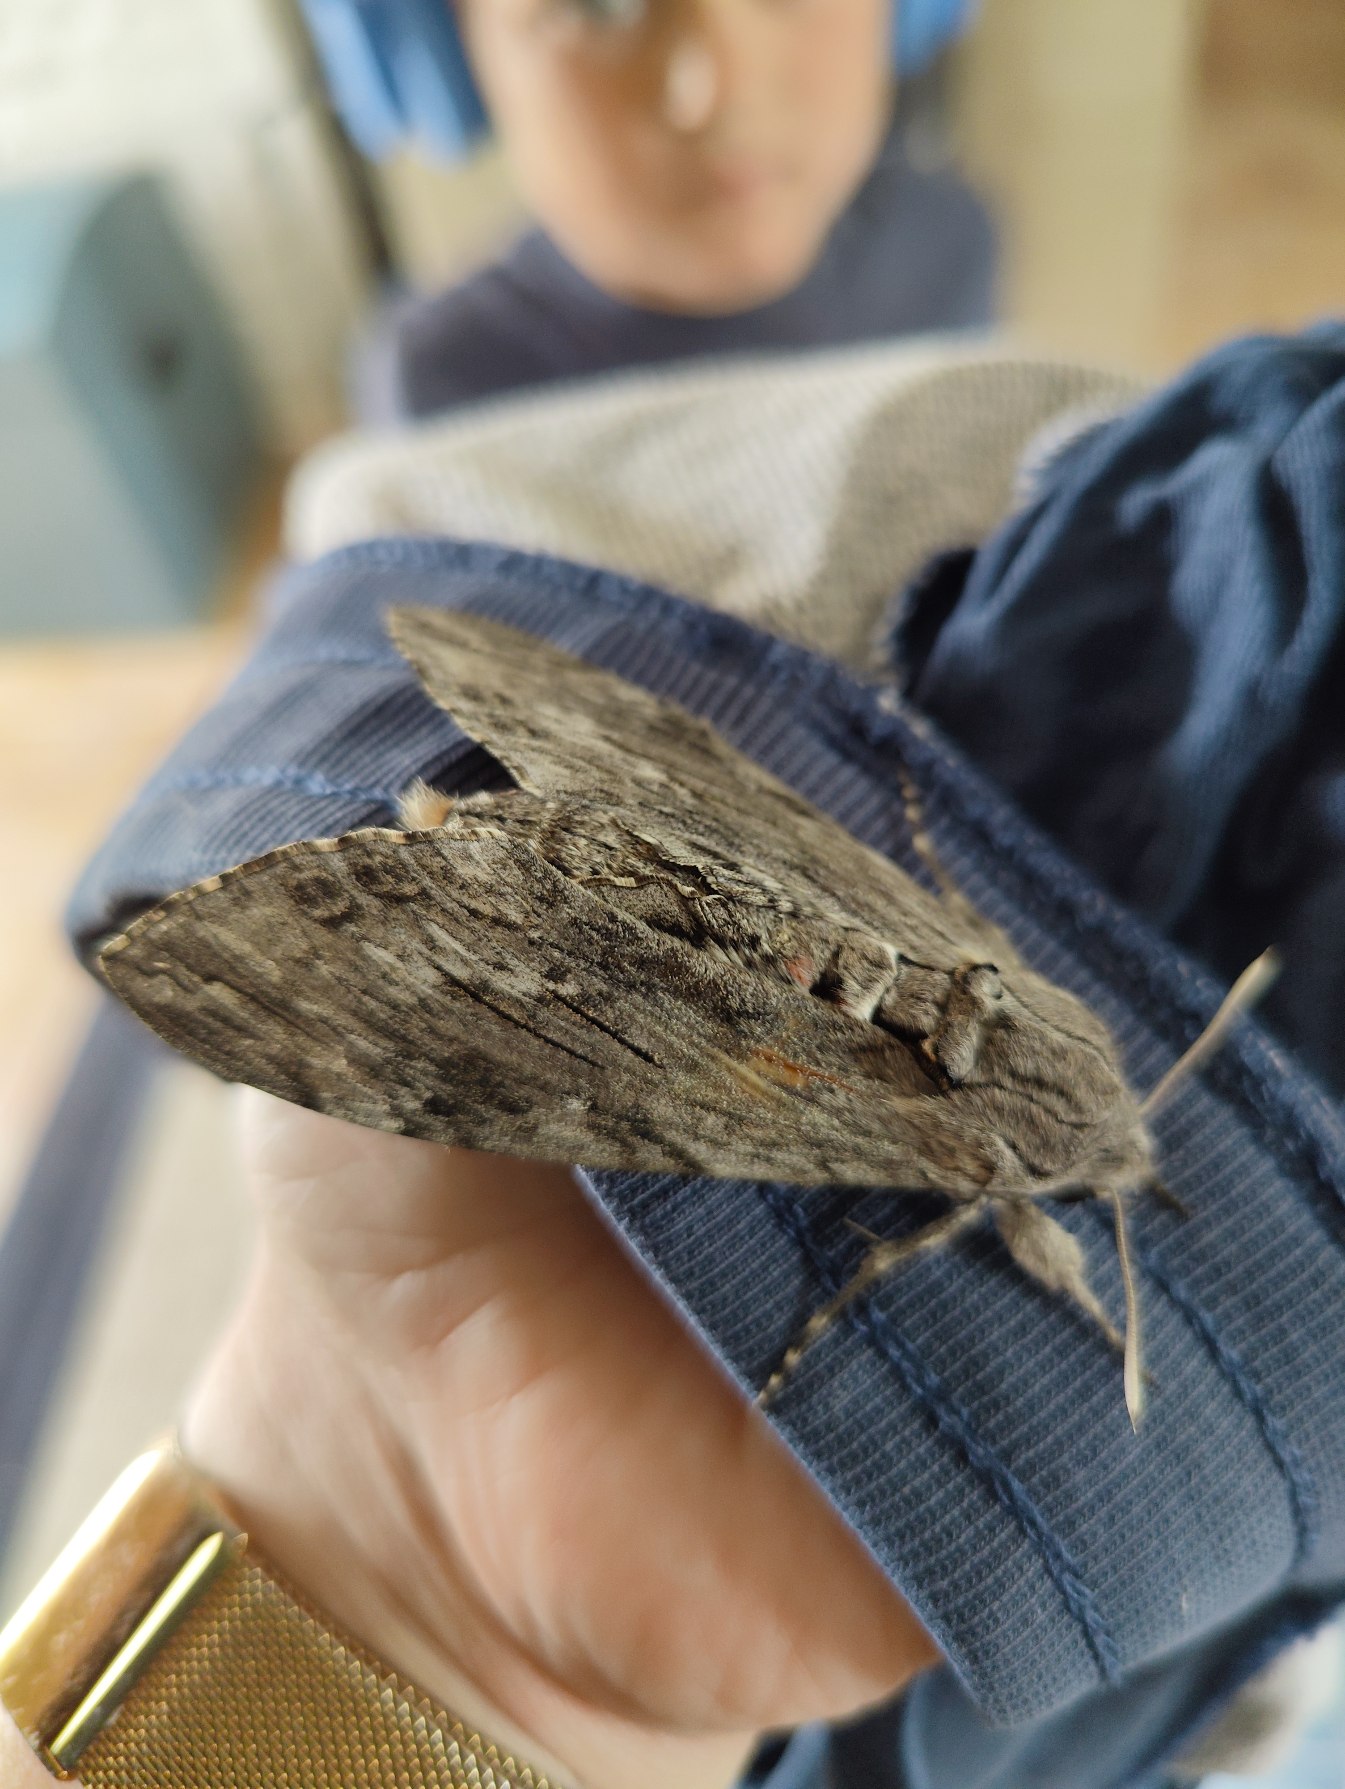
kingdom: Animalia
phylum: Arthropoda
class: Insecta
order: Lepidoptera
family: Sphingidae
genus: Agrius
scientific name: Agrius convolvuli
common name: Snerlesværmer
